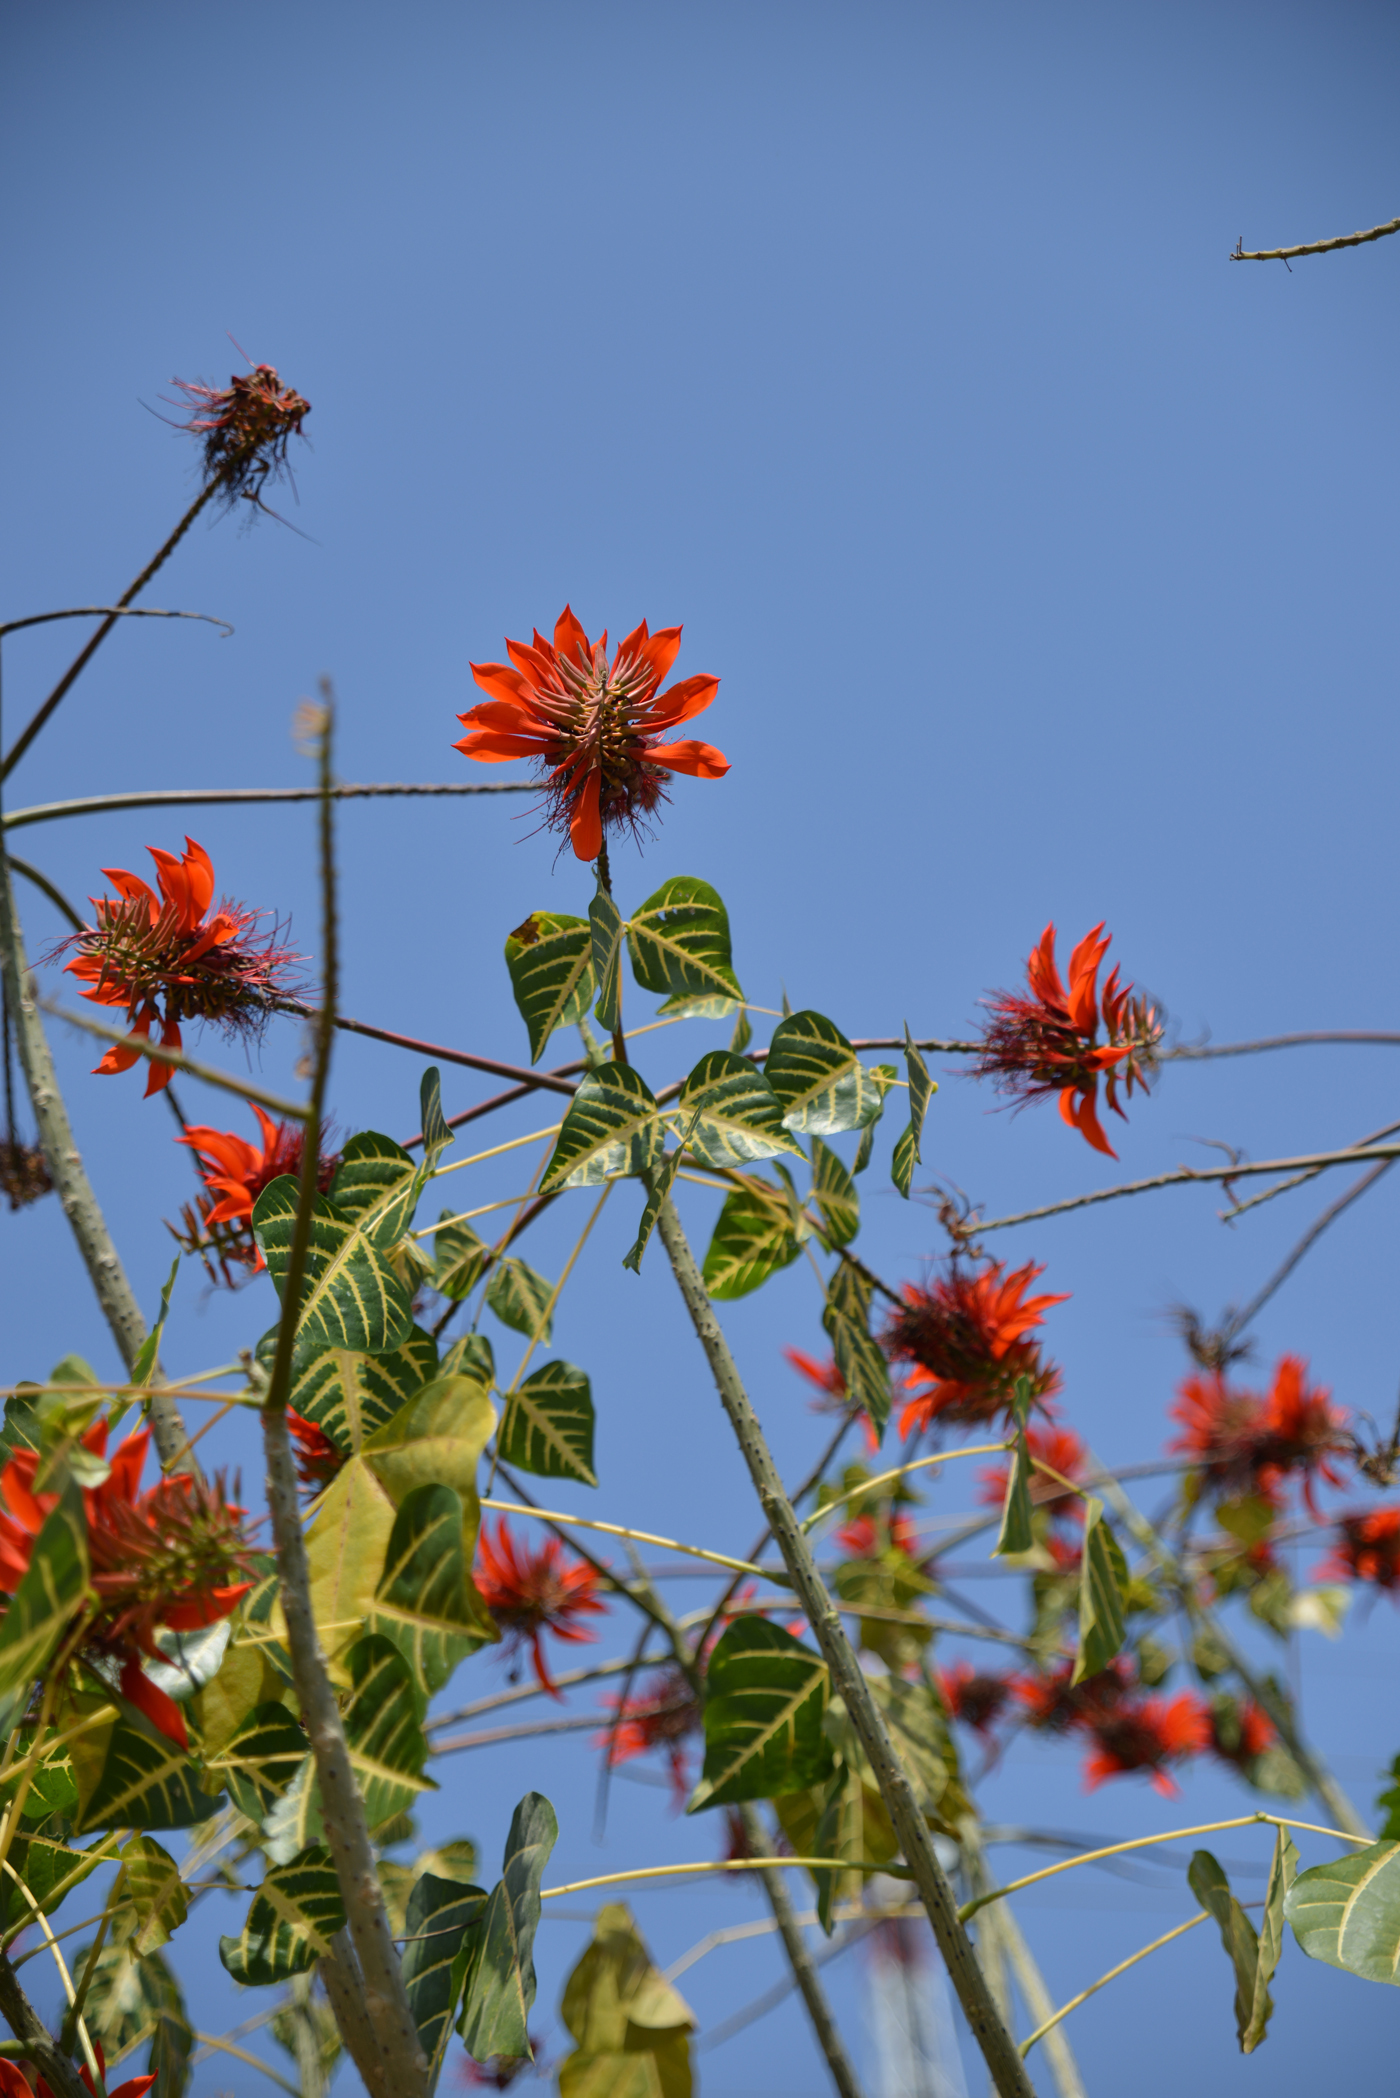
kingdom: Plantae
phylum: Tracheophyta
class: Magnoliopsida
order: Fabales
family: Fabaceae
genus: Erythrina
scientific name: Erythrina variegata
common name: Indian coral tree
